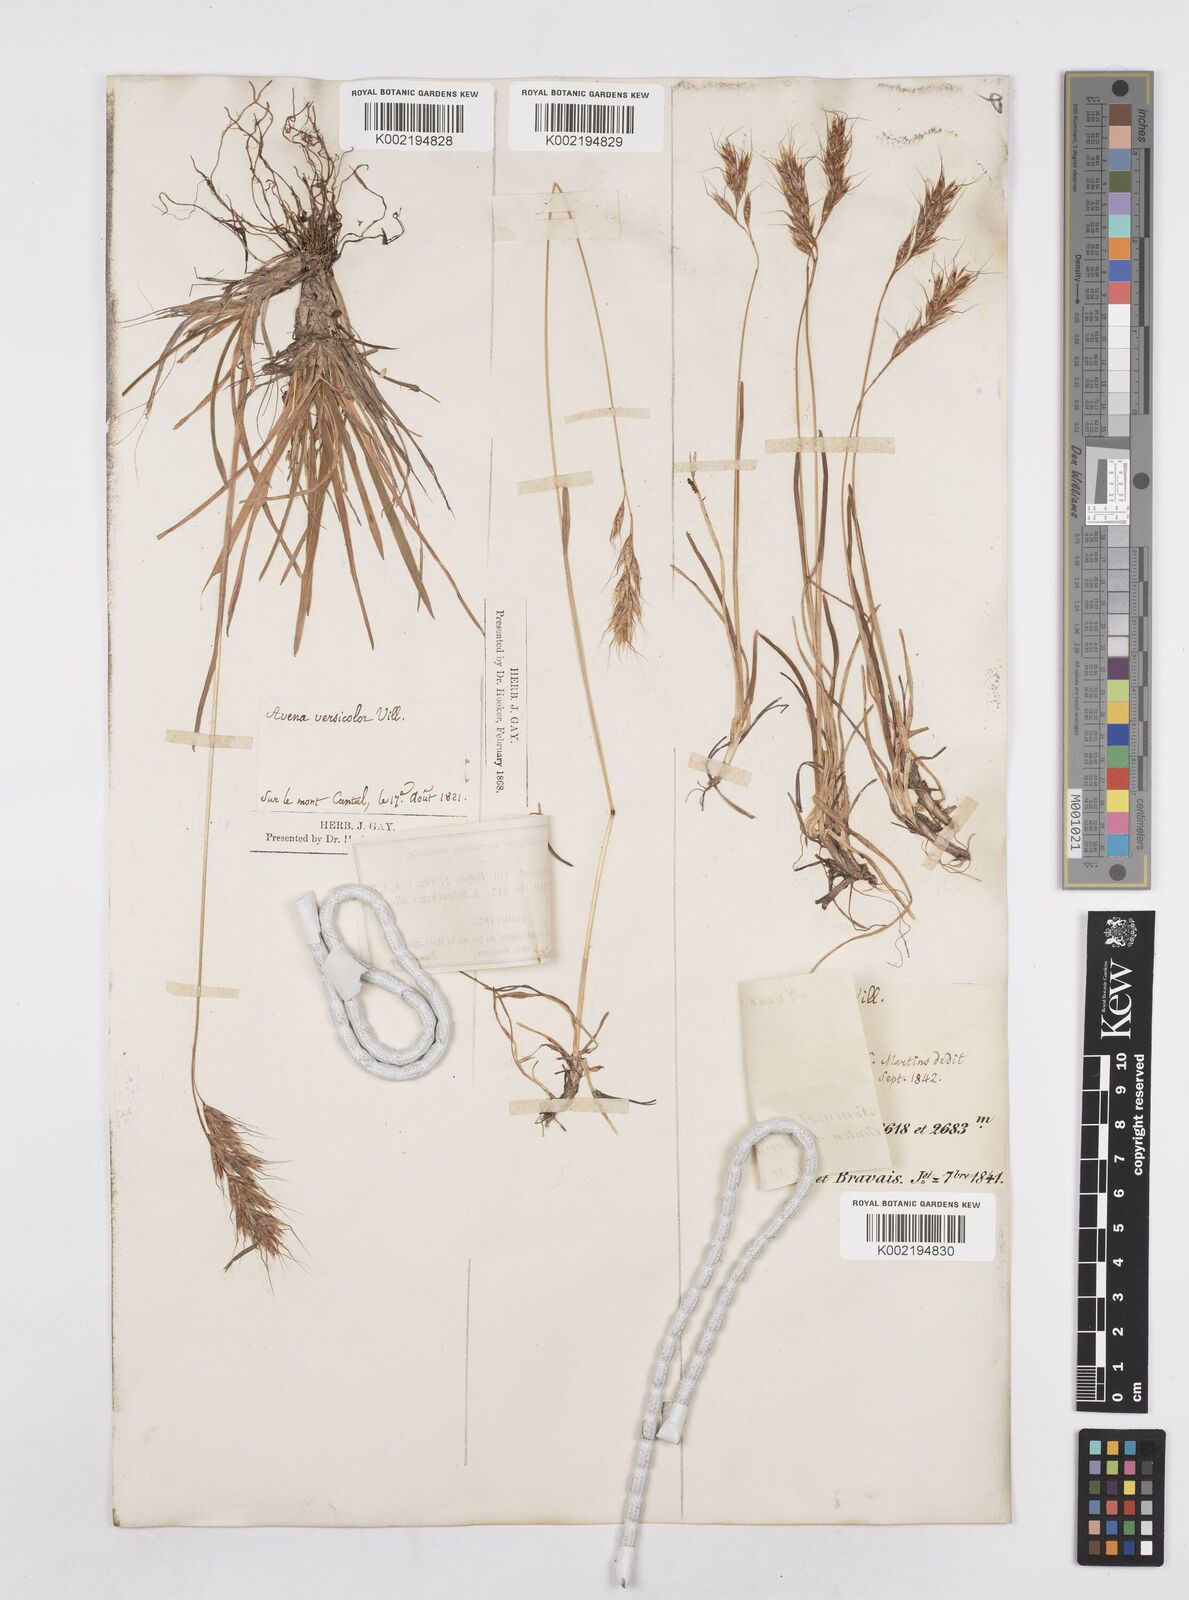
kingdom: Plantae
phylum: Tracheophyta
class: Liliopsida
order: Poales
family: Poaceae
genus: Helictotrichon
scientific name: Helictotrichon
